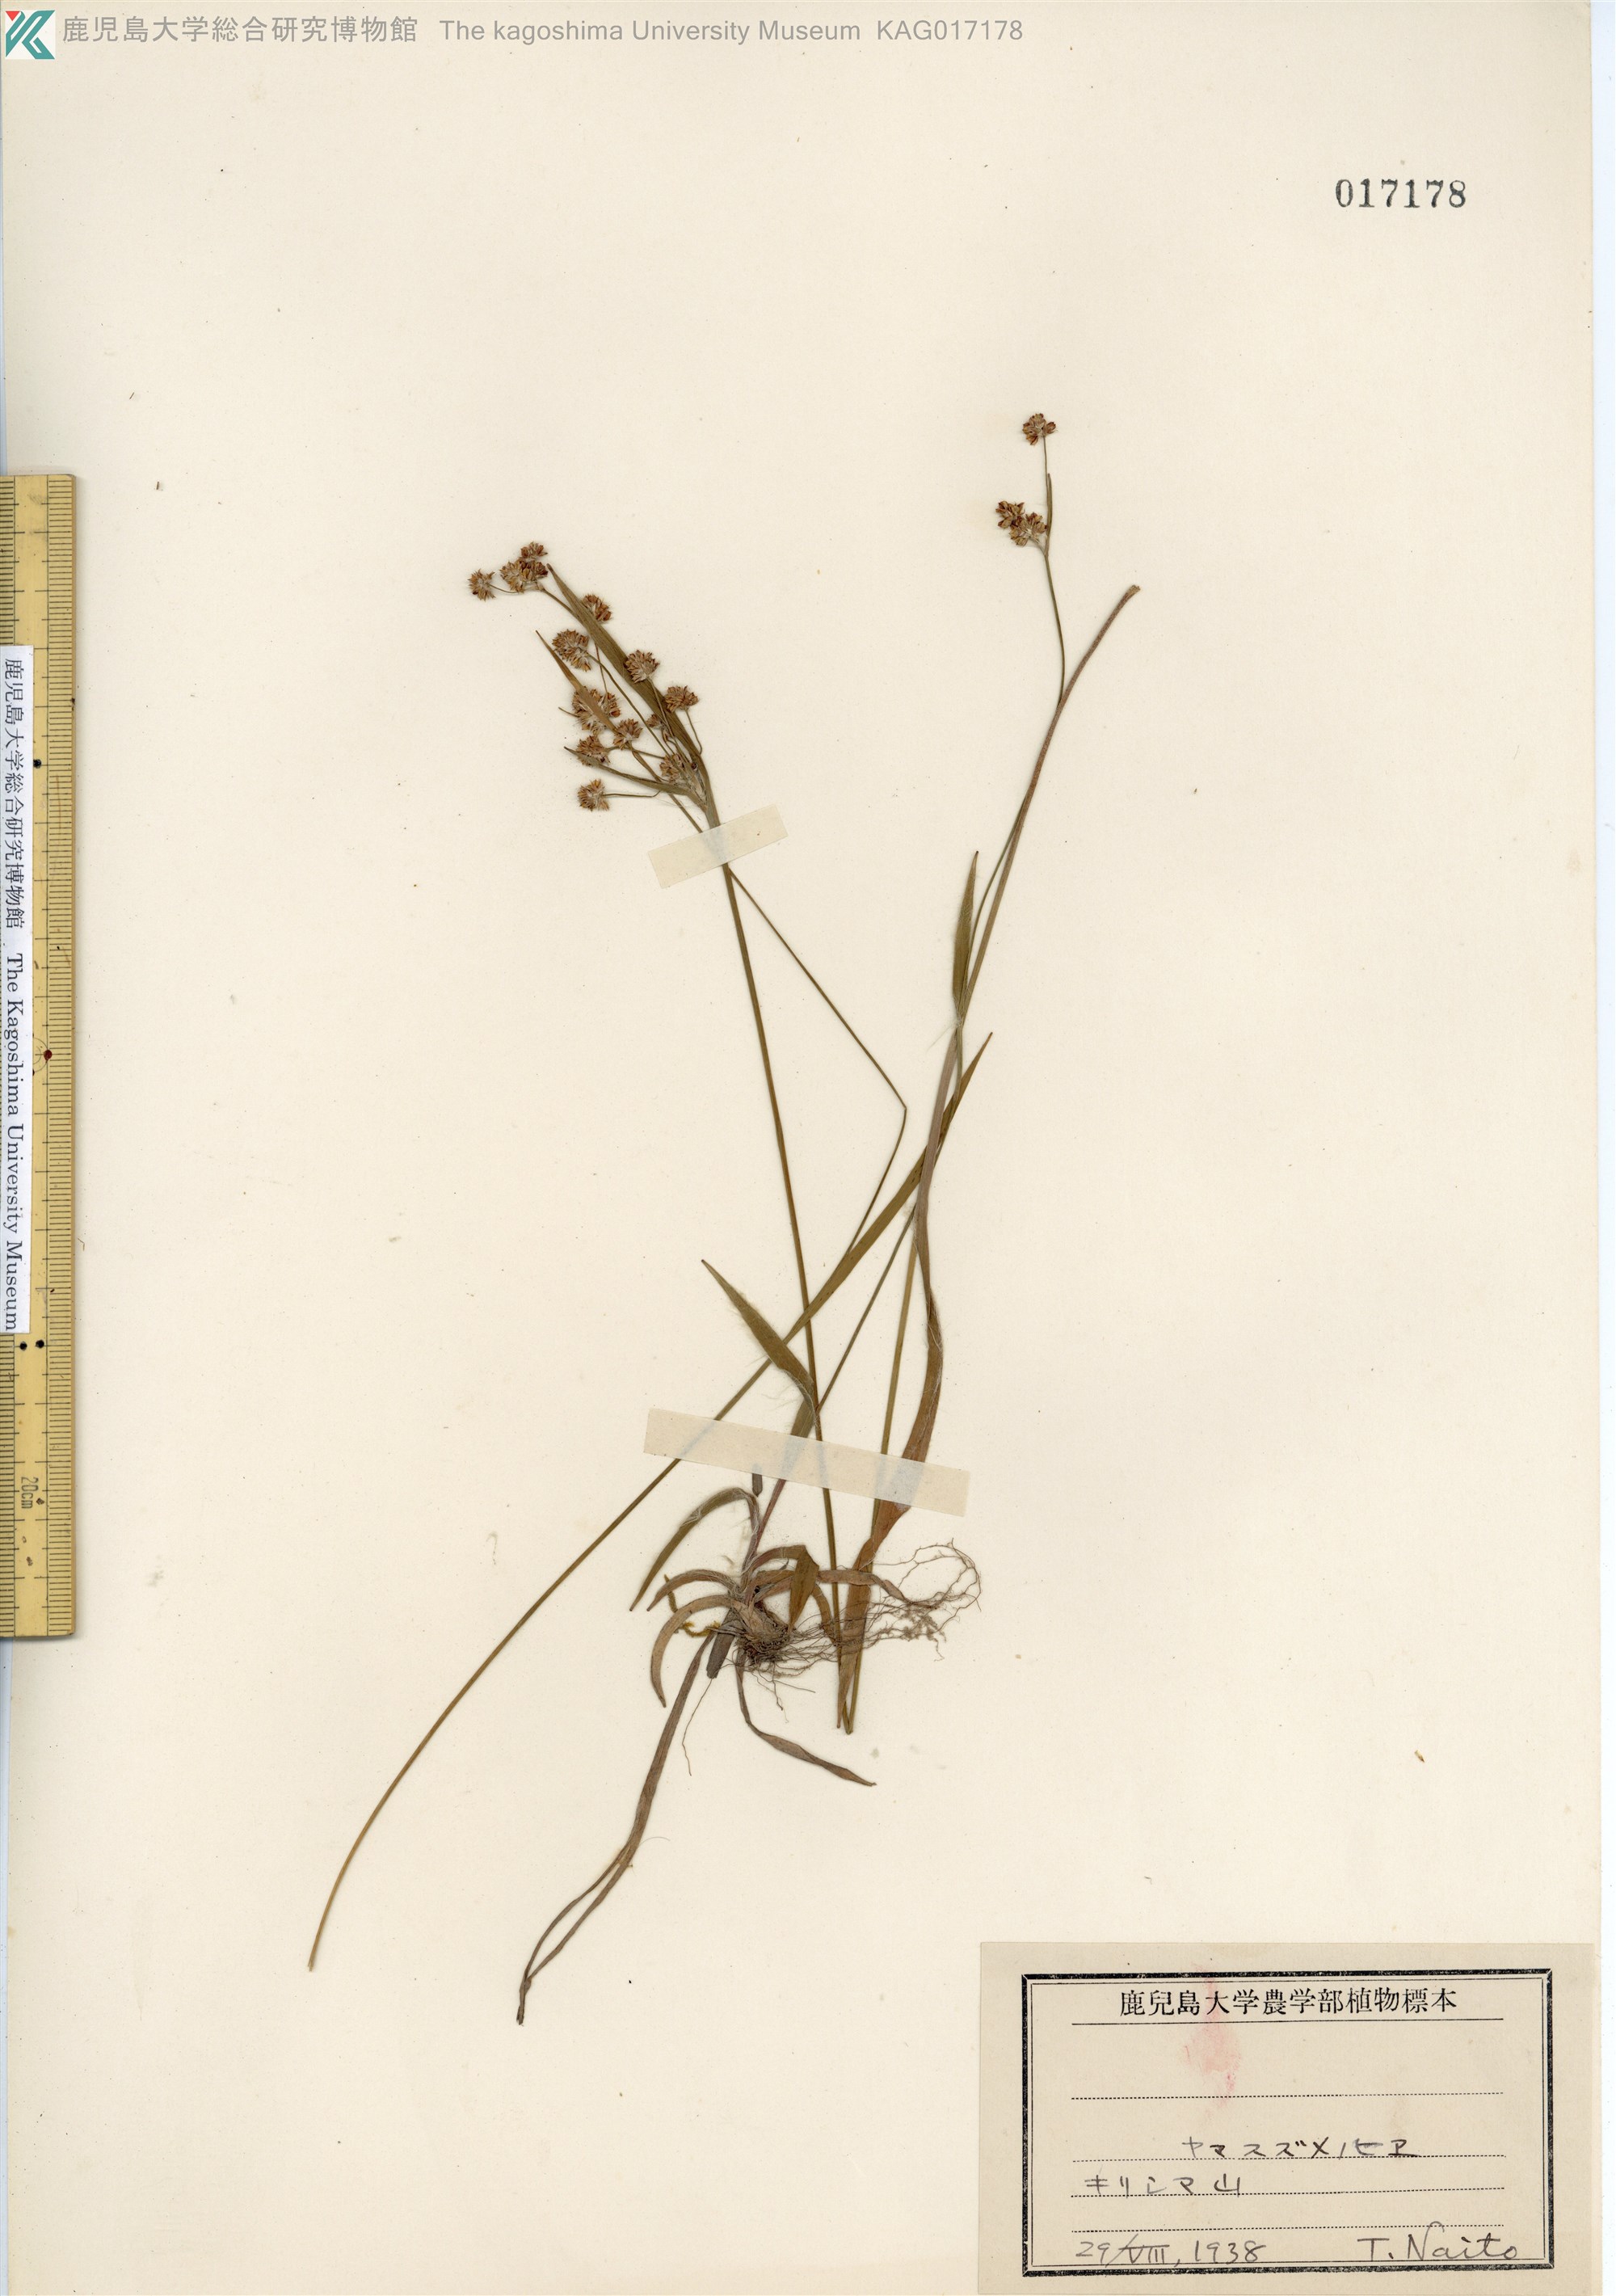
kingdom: Plantae
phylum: Tracheophyta
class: Liliopsida
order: Poales
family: Juncaceae
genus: Luzula
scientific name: Luzula multiflora
